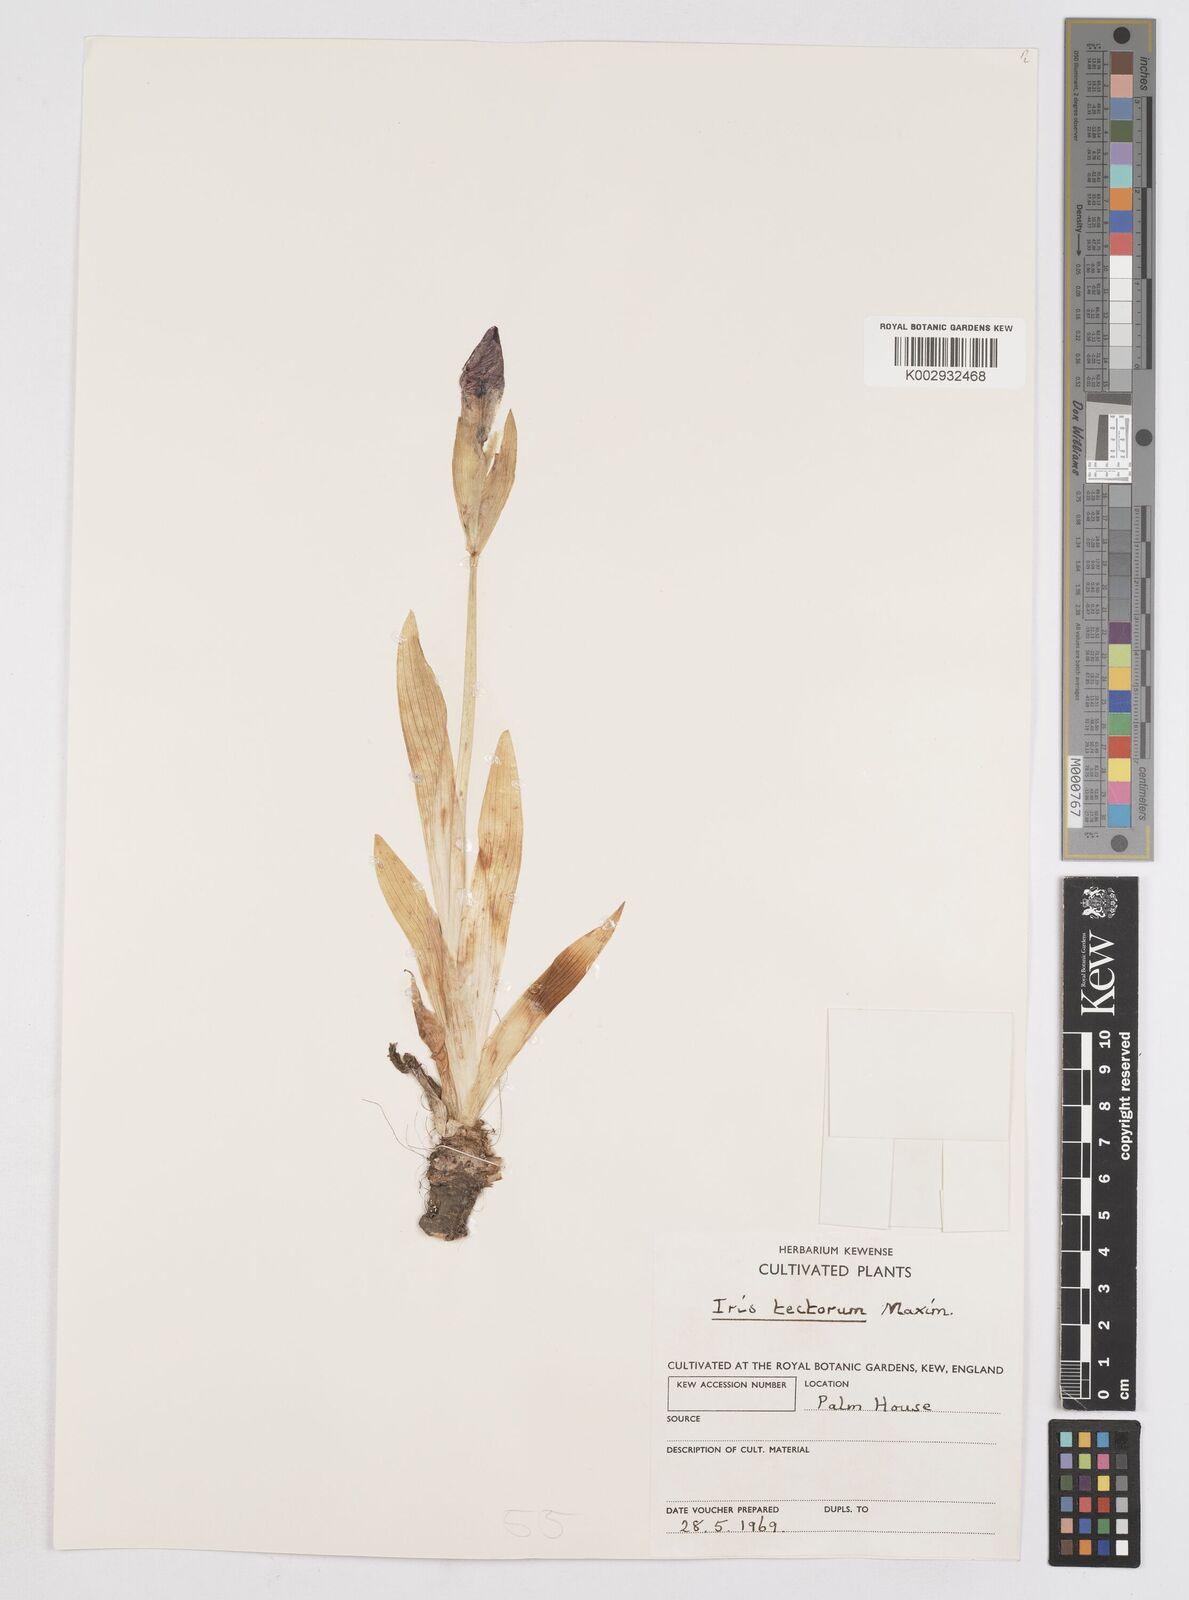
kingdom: Plantae
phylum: Tracheophyta
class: Liliopsida
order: Asparagales
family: Iridaceae
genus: Iris
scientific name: Iris tectorum
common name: Wall iris
